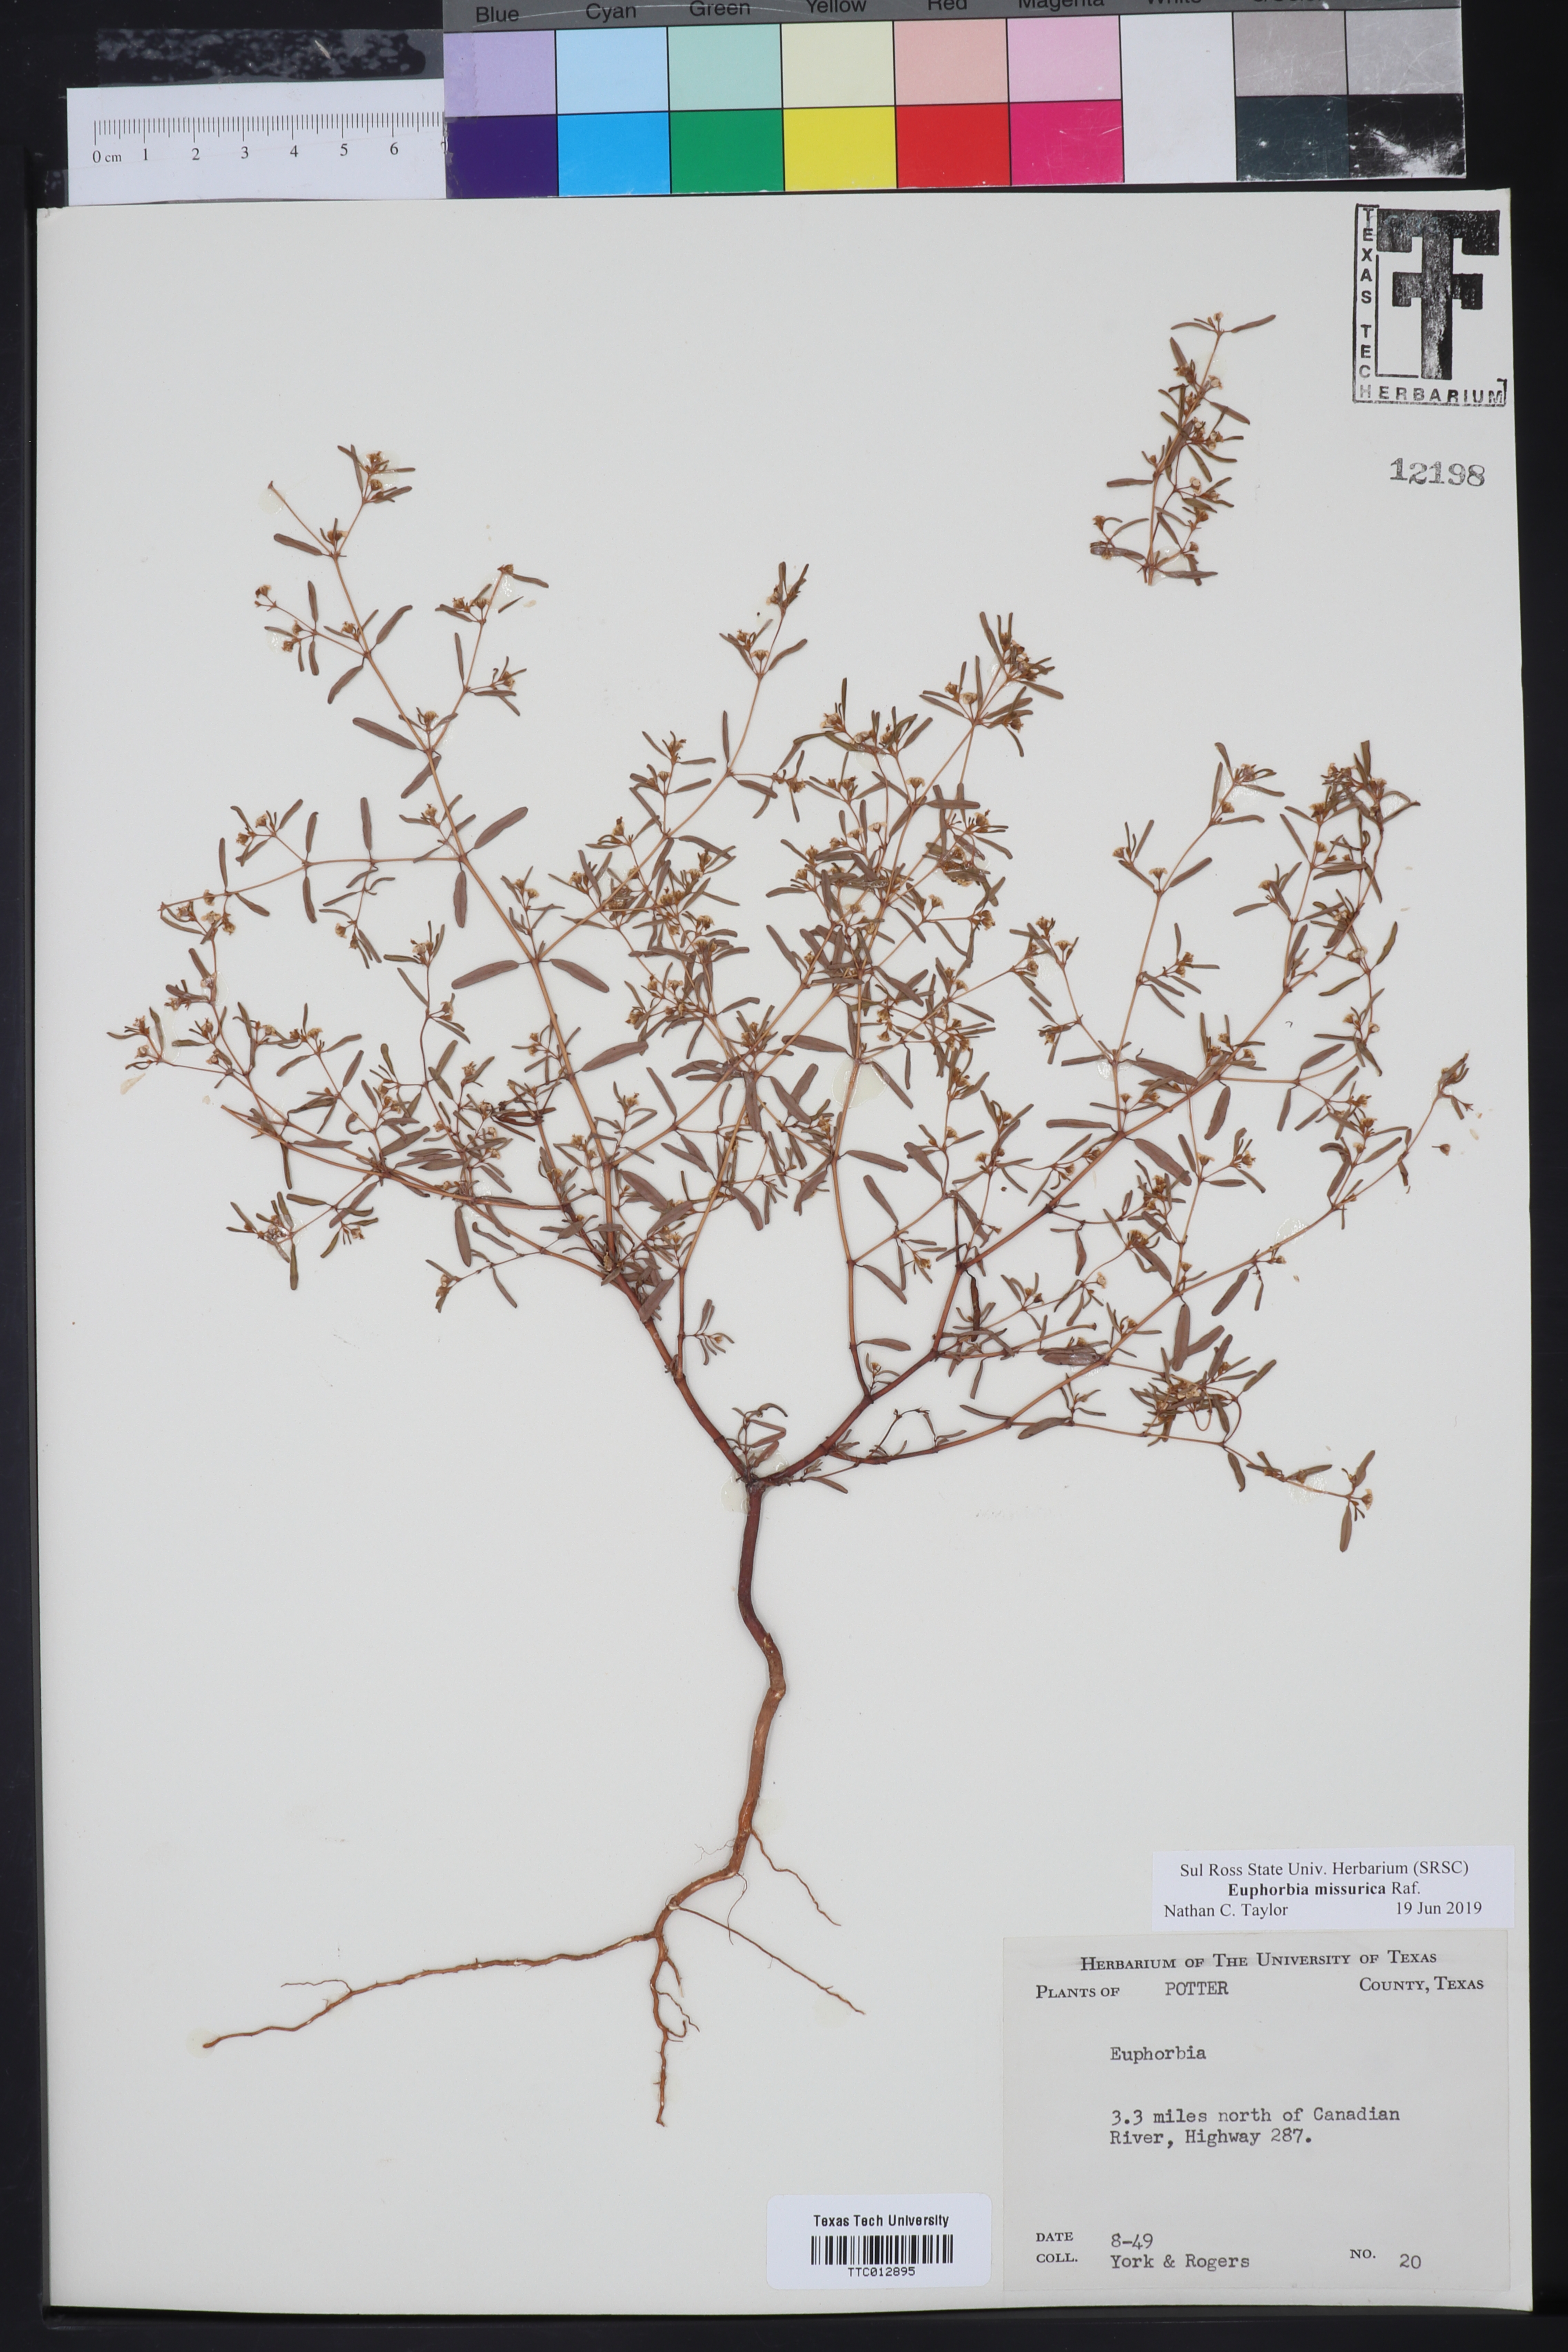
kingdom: Plantae
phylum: Tracheophyta
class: Magnoliopsida
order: Malpighiales
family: Euphorbiaceae
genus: Euphorbia
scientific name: Euphorbia
